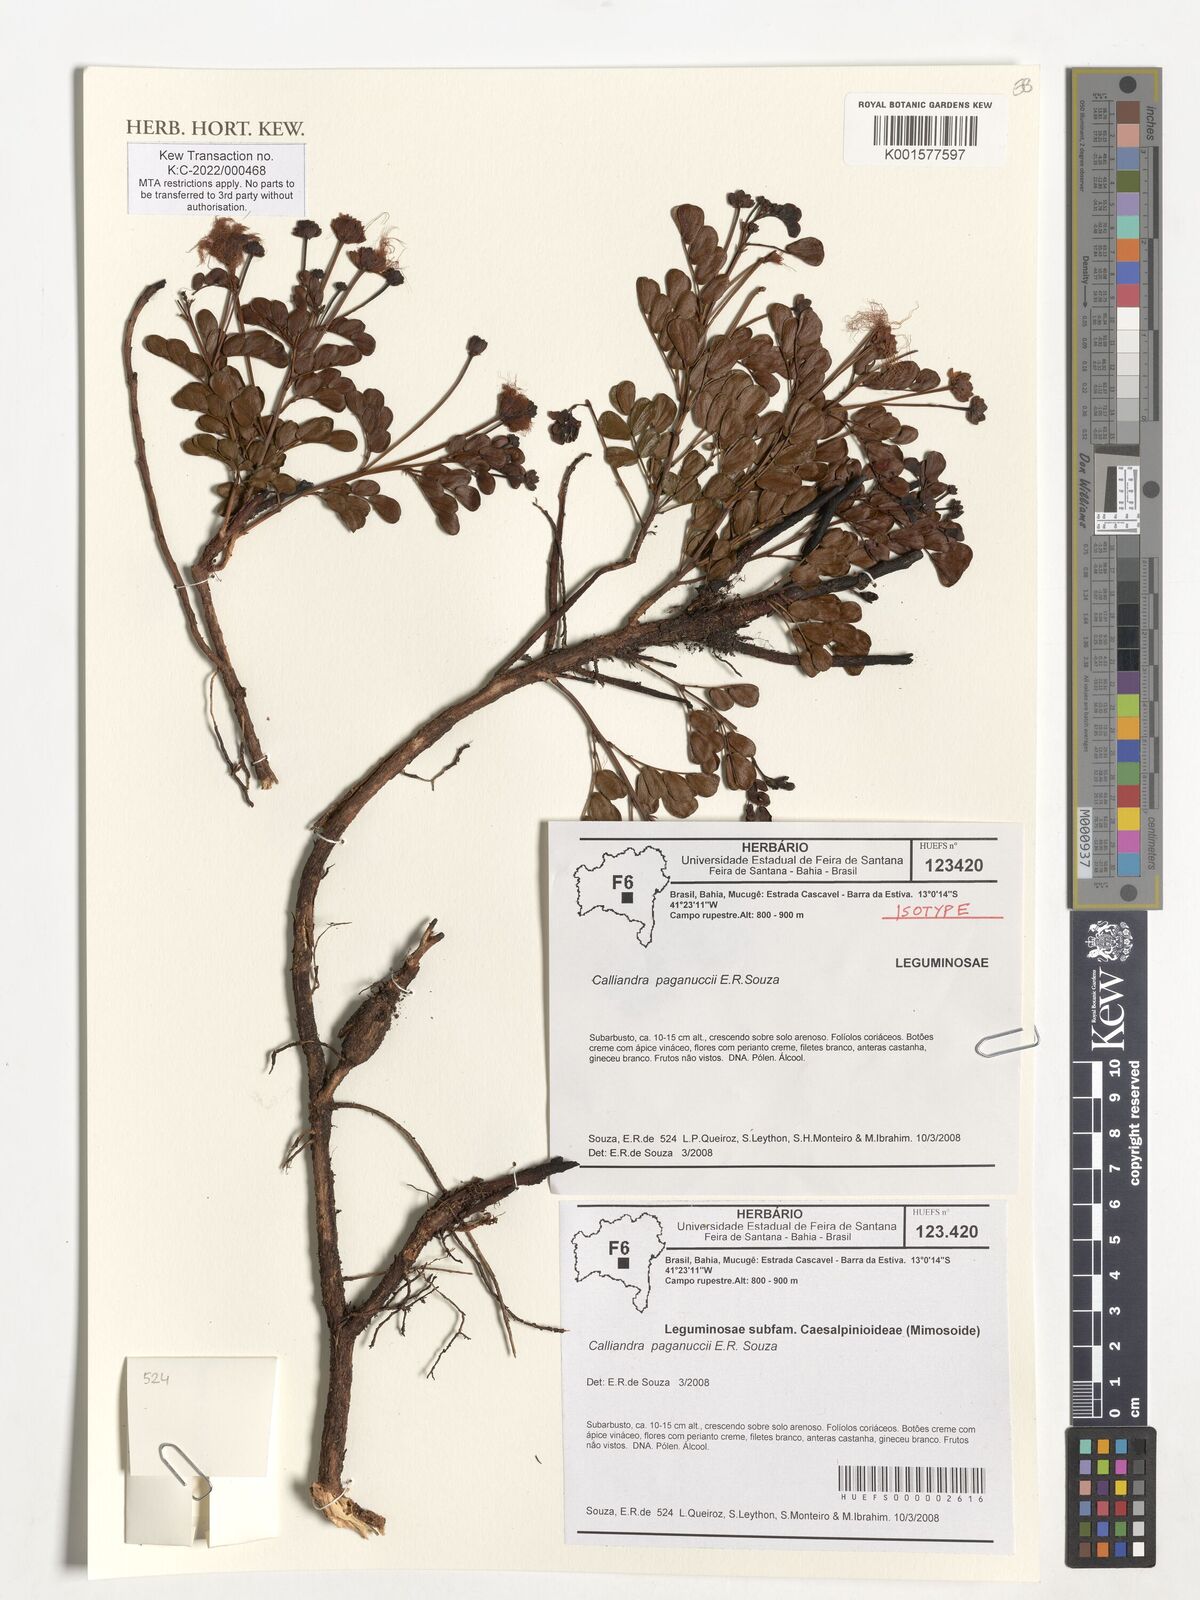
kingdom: Plantae
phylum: Tracheophyta
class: Magnoliopsida
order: Fabales
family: Fabaceae
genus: Calliandra
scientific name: Calliandra paganuccii
